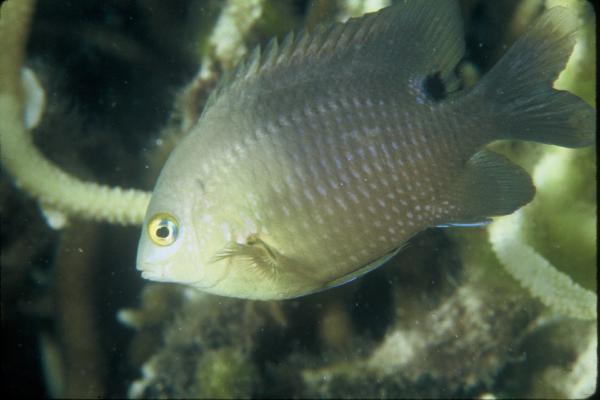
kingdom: Animalia
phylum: Chordata
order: Perciformes
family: Pomacentridae
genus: Stegastes
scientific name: Stegastes nigricans
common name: Dusky gregory
